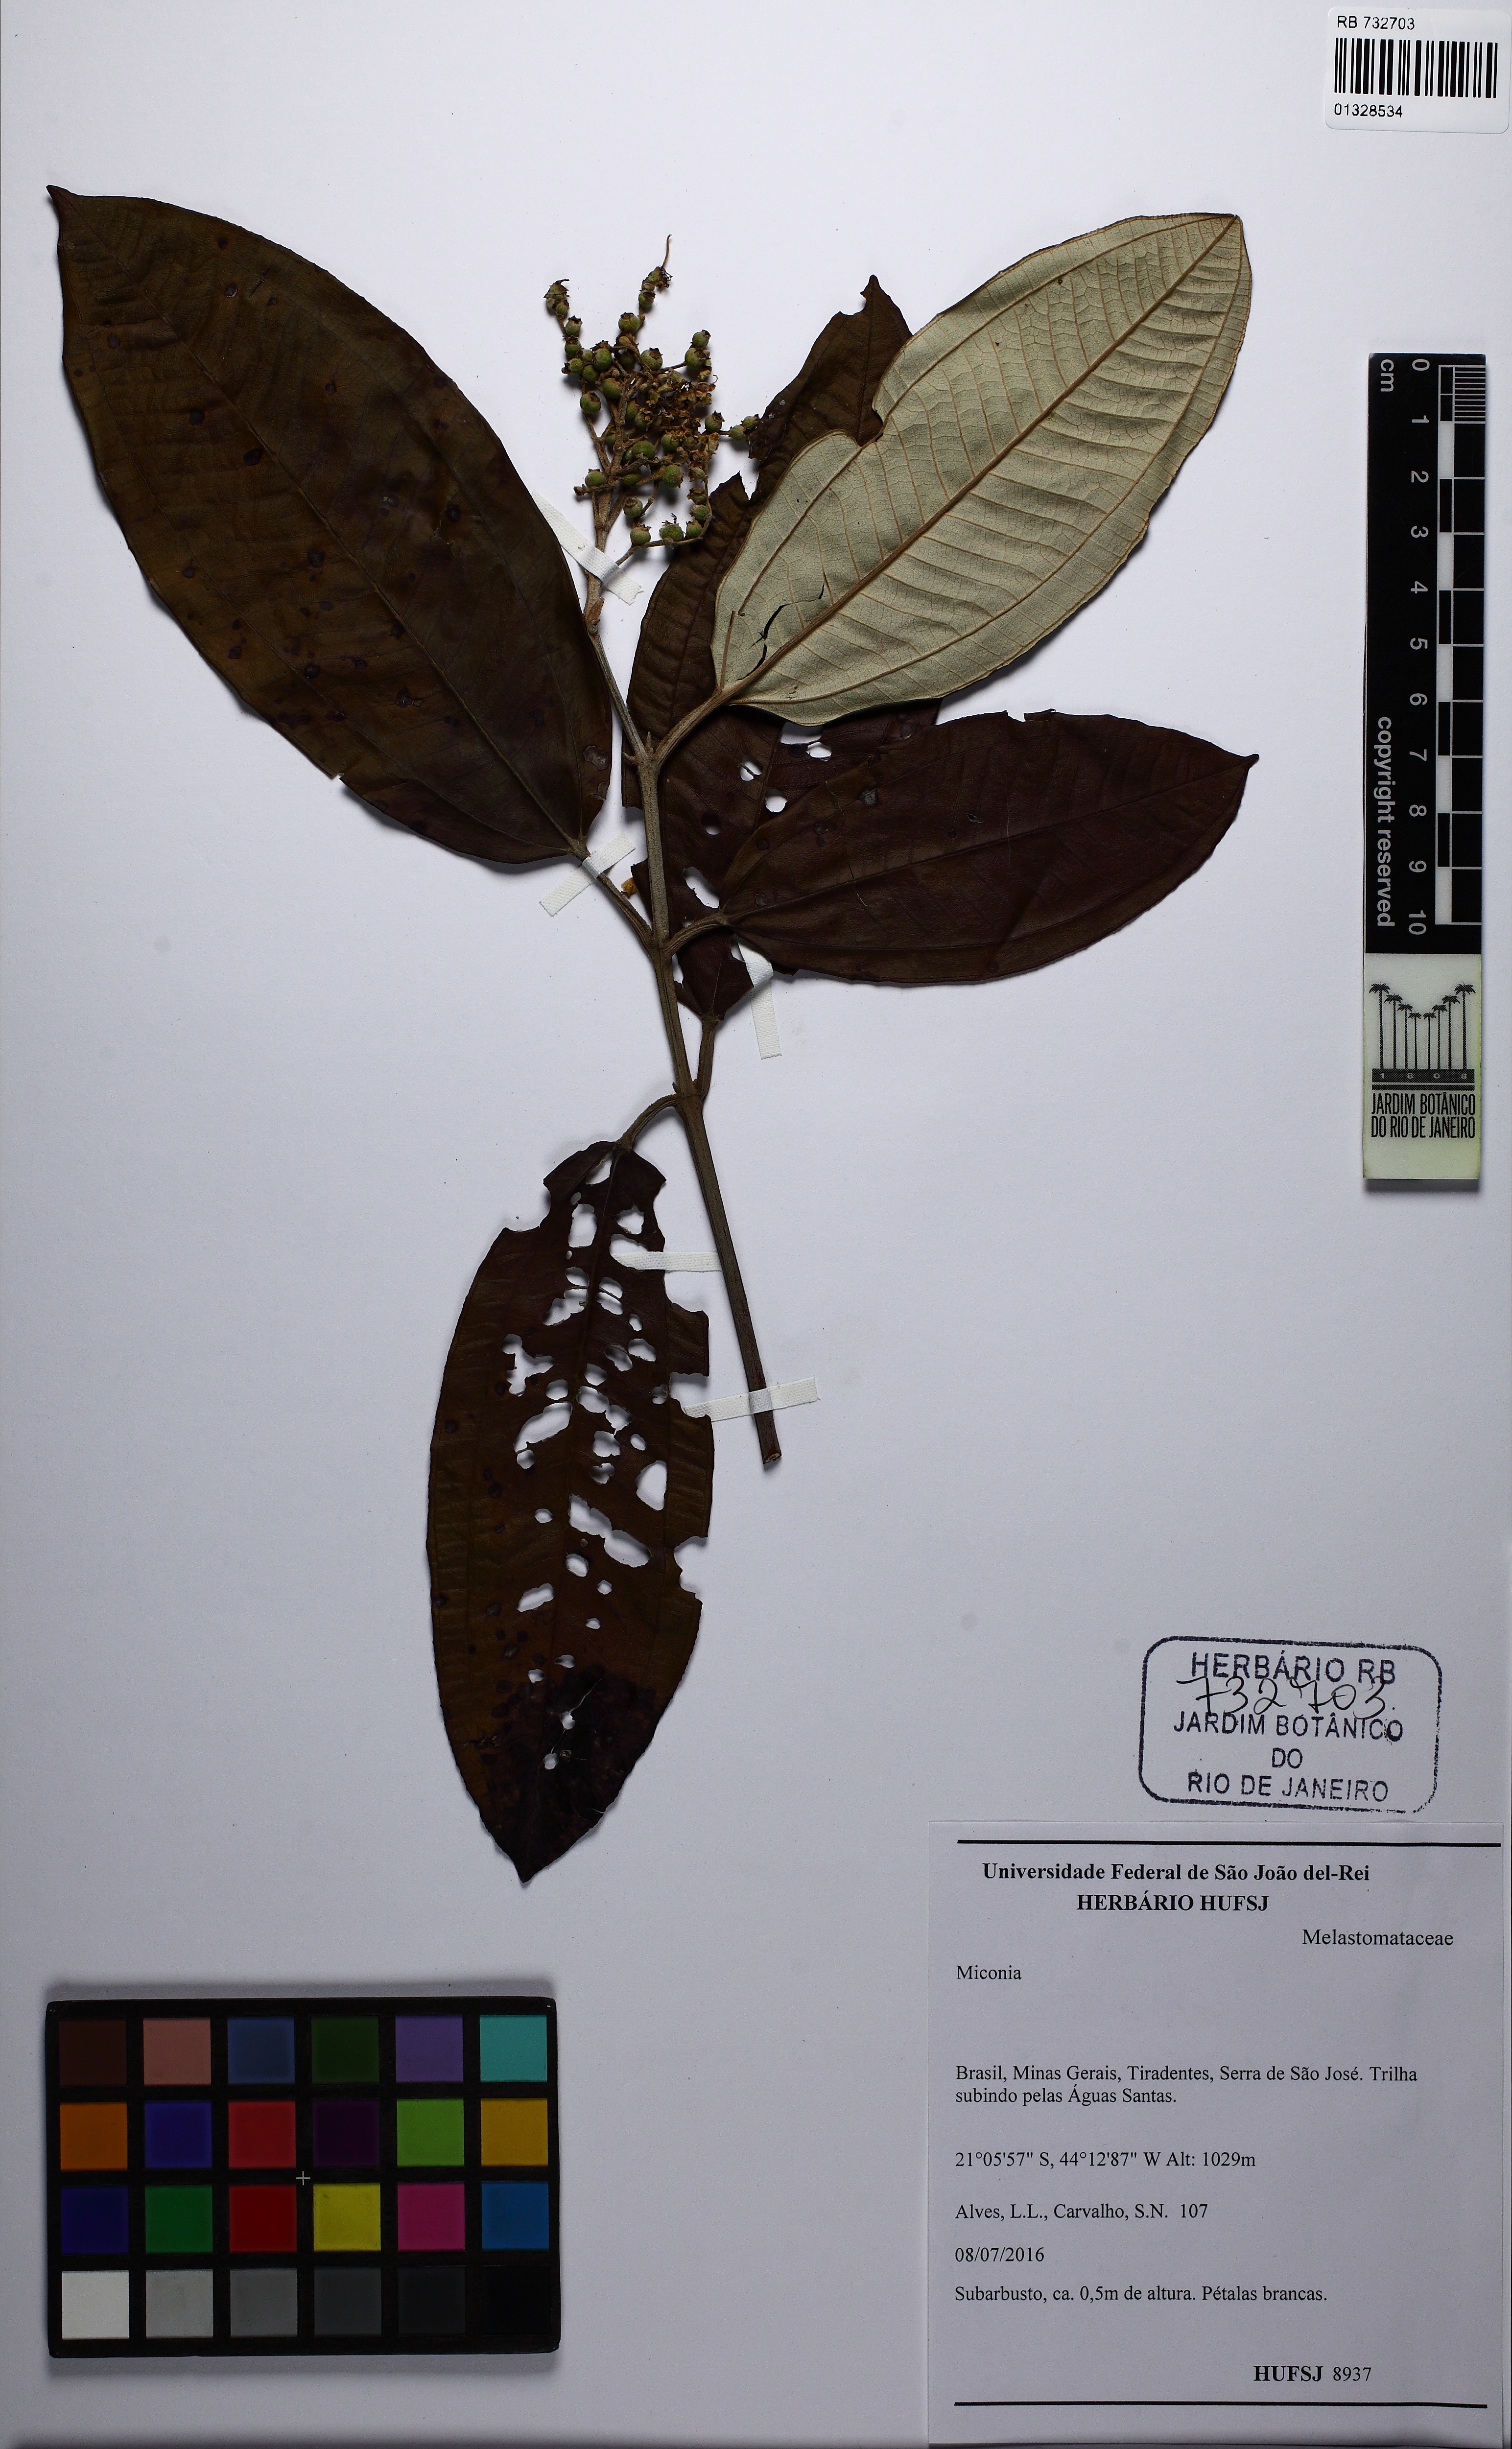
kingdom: Plantae
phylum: Tracheophyta
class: Magnoliopsida
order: Myrtales
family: Melastomataceae
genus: Miconia
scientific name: Miconia
